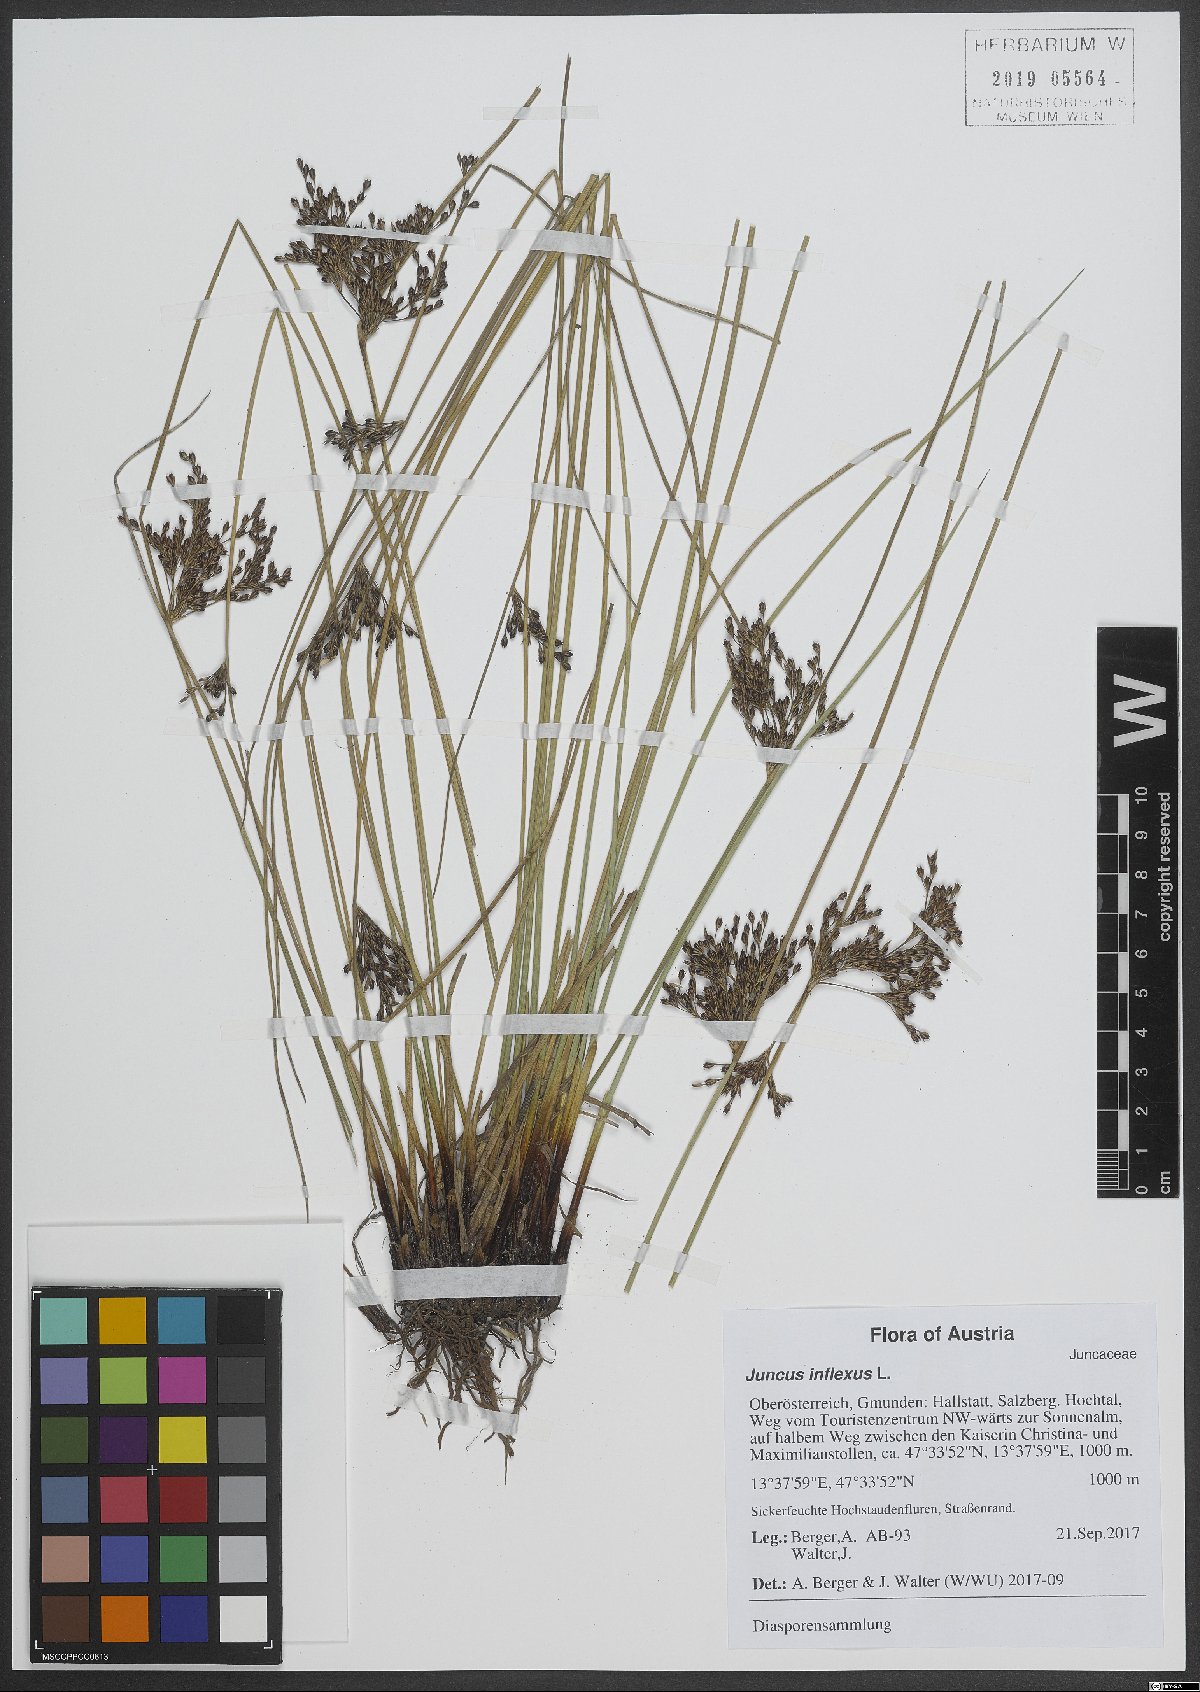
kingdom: Plantae
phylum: Tracheophyta
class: Liliopsida
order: Poales
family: Juncaceae
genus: Juncus
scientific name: Juncus inflexus
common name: Hard rush
